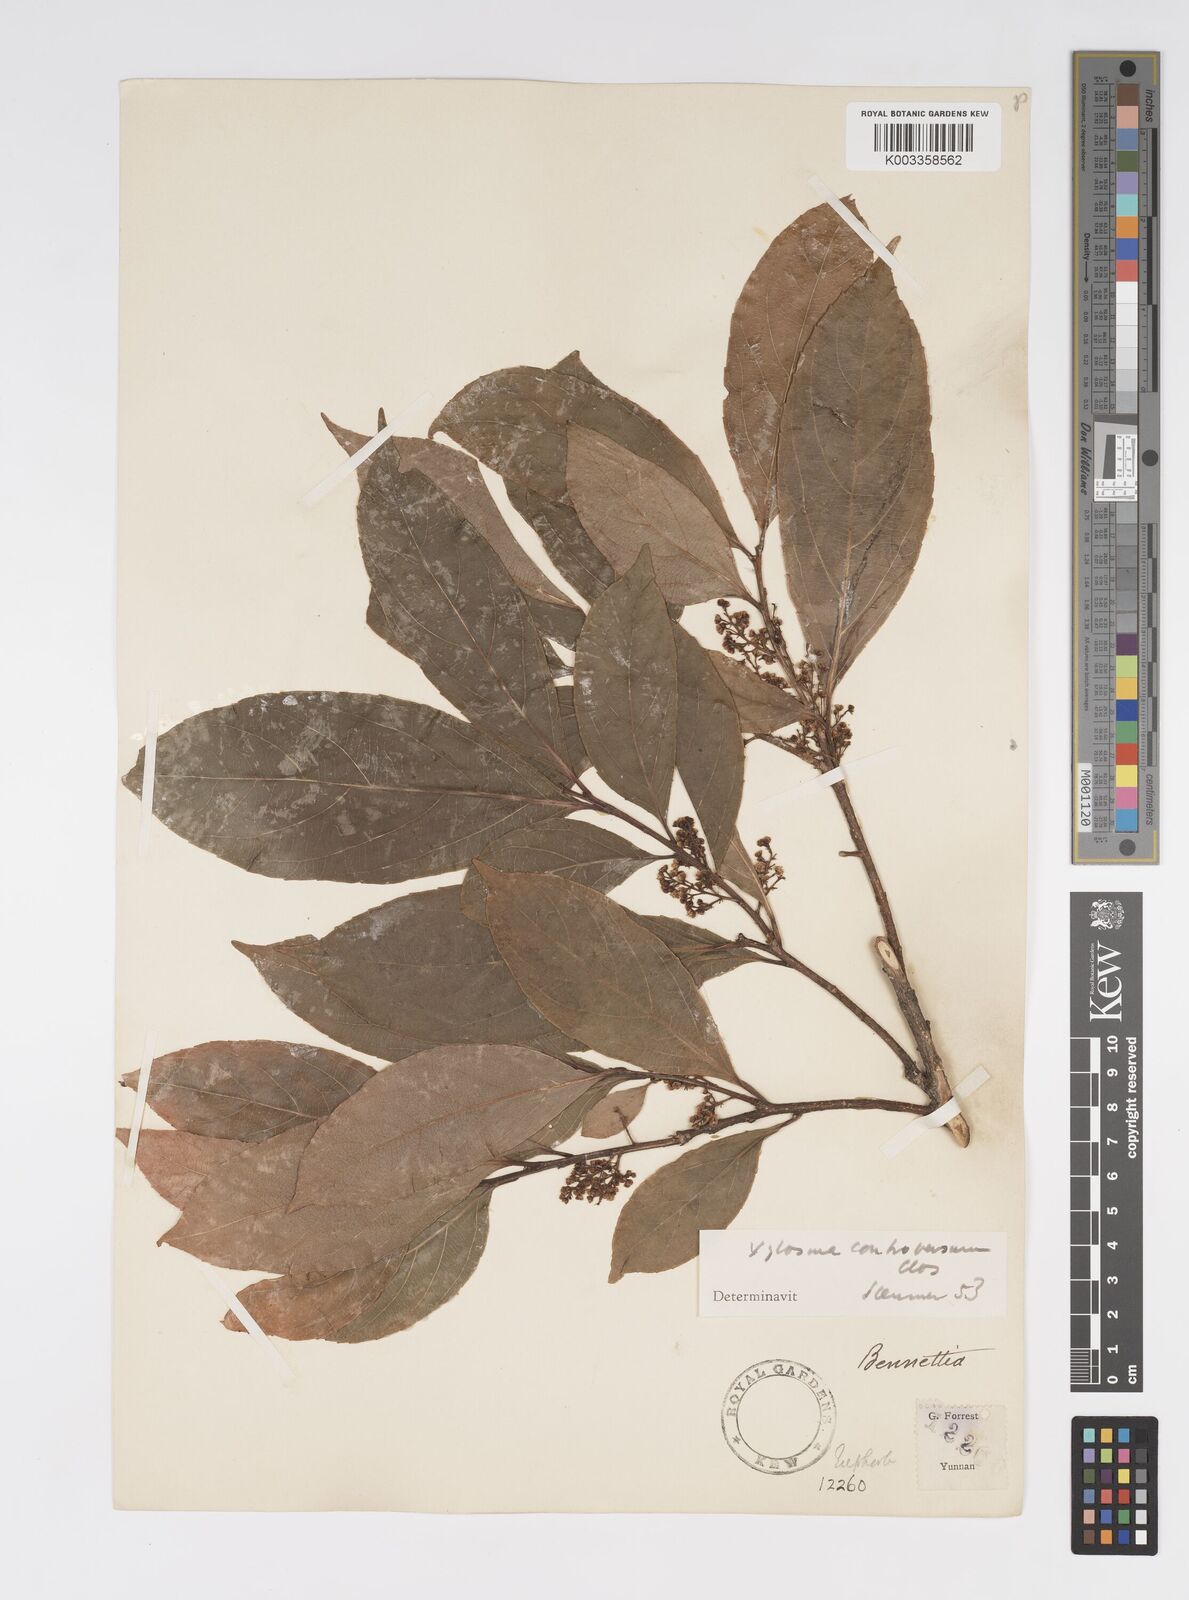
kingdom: Plantae
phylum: Tracheophyta
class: Magnoliopsida
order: Malpighiales
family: Salicaceae
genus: Xylosma
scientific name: Xylosma controversa
